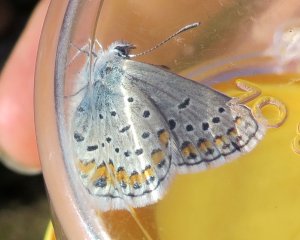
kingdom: Animalia
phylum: Arthropoda
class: Insecta
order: Lepidoptera
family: Lycaenidae
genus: Lycaeides
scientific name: Lycaeides melissa
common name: Melissa Blue
